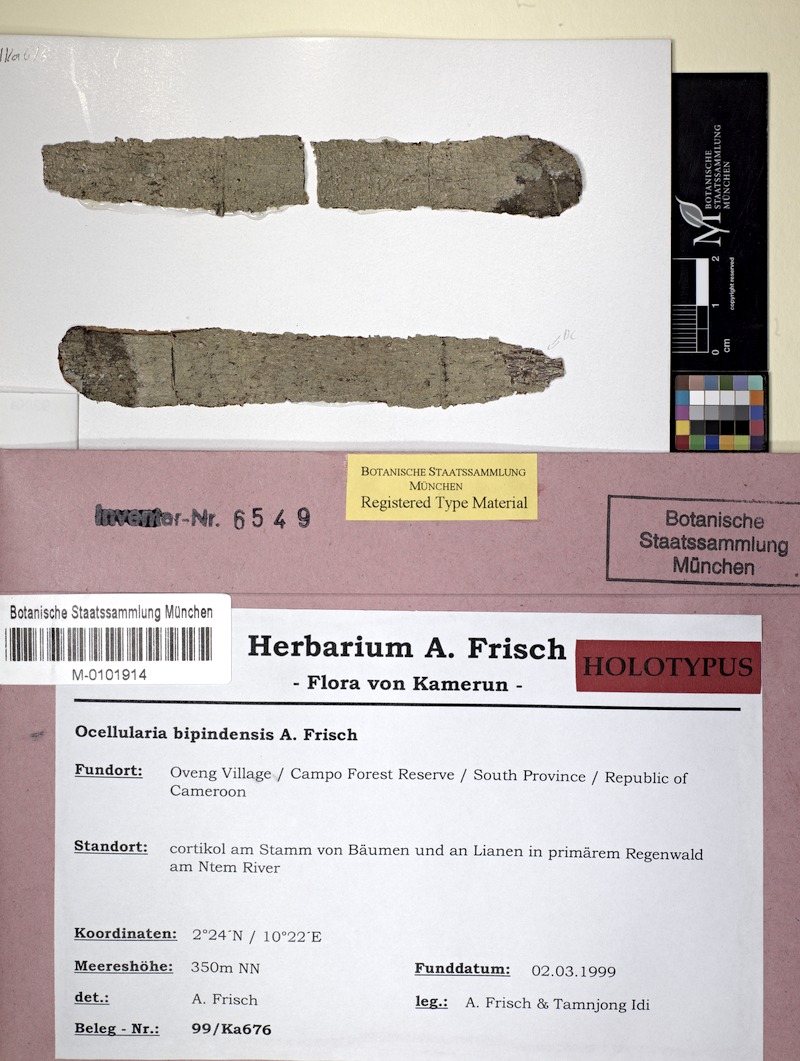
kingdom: Fungi
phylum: Ascomycota
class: Lecanoromycetes
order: Ostropales
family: Graphidaceae
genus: Ocellularia
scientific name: Ocellularia bipindensis
